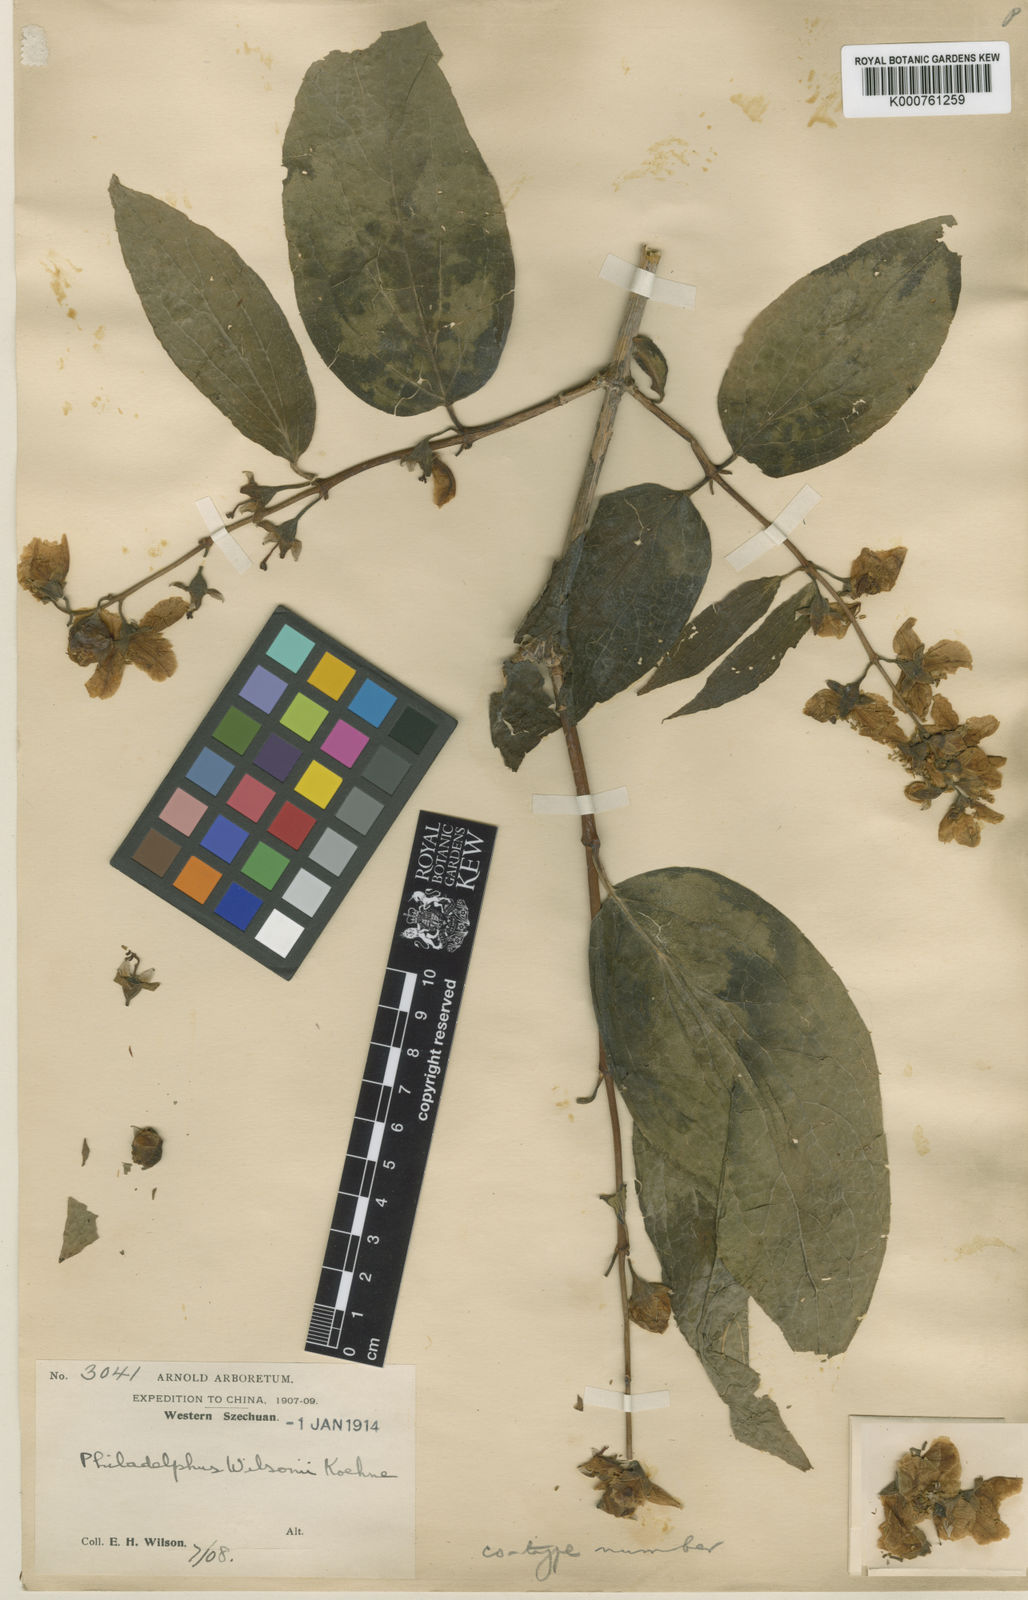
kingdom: Plantae
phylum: Tracheophyta
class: Magnoliopsida
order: Cornales
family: Hydrangeaceae
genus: Philadelphus
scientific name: Philadelphus subcanus
